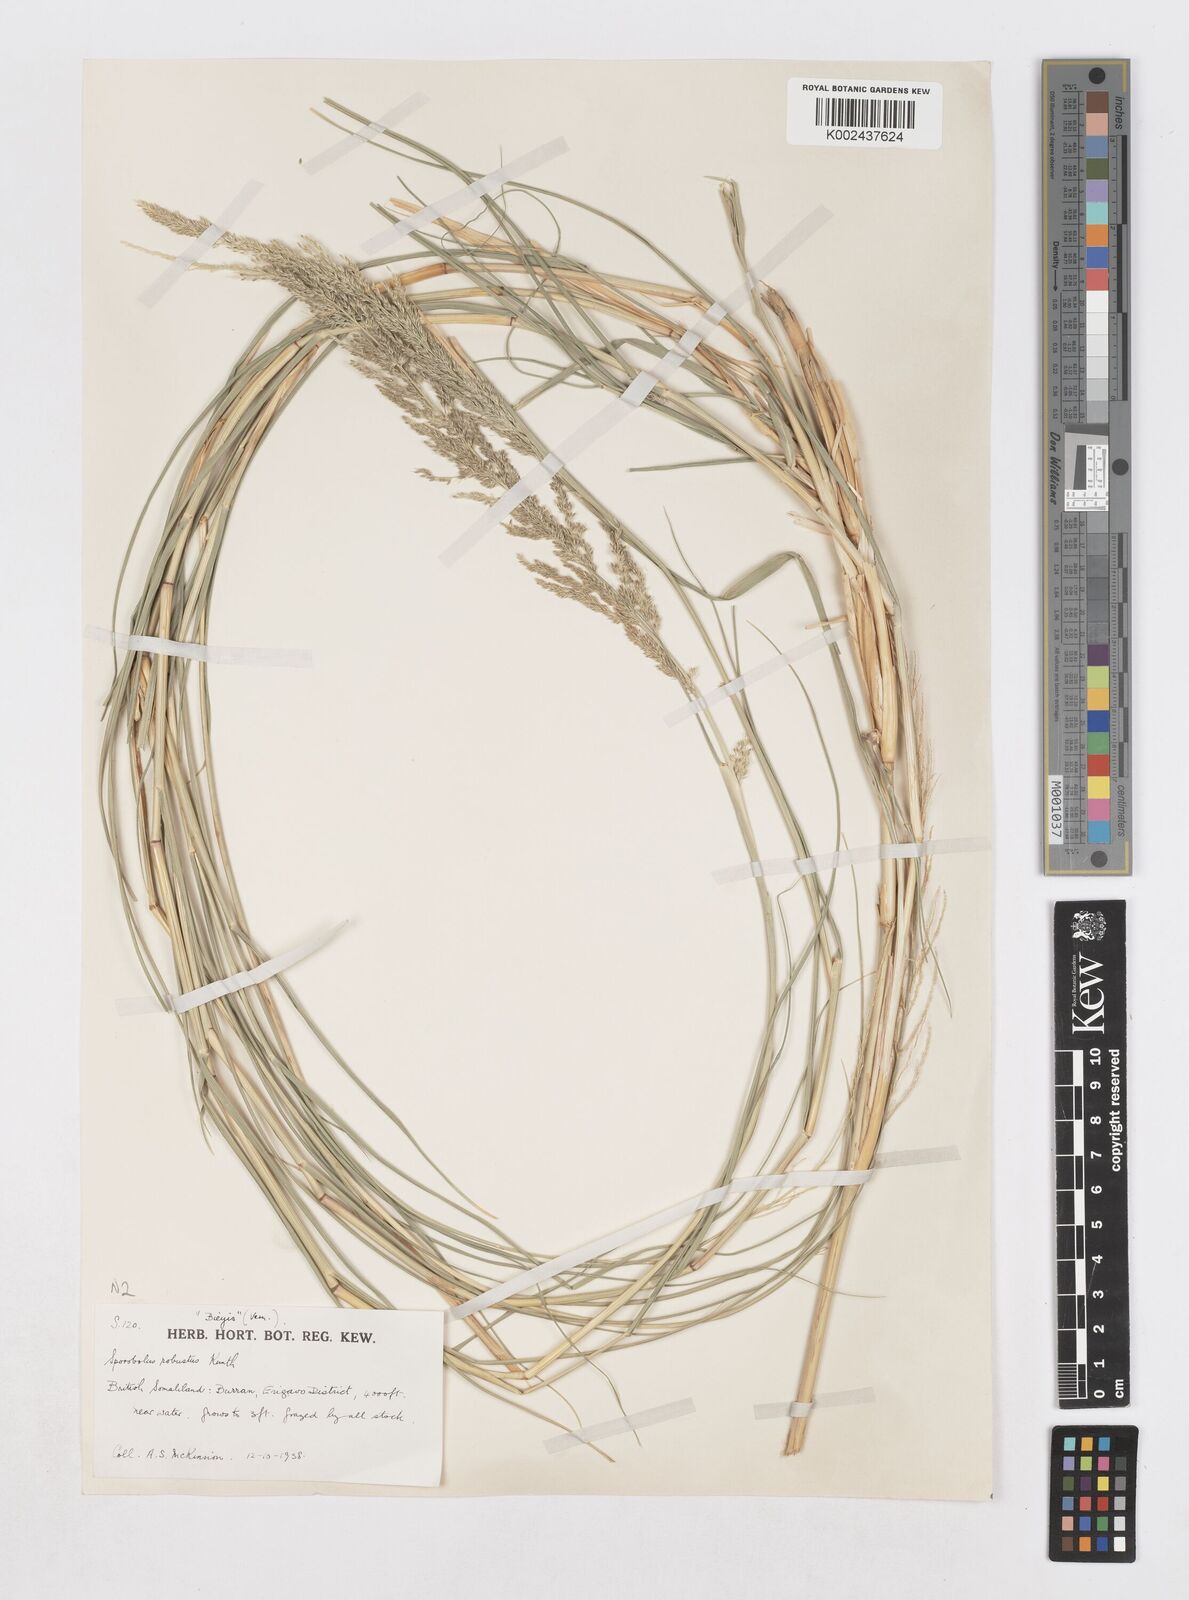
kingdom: Plantae
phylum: Tracheophyta
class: Liliopsida
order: Poales
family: Poaceae
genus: Sporobolus
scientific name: Sporobolus consimilis
